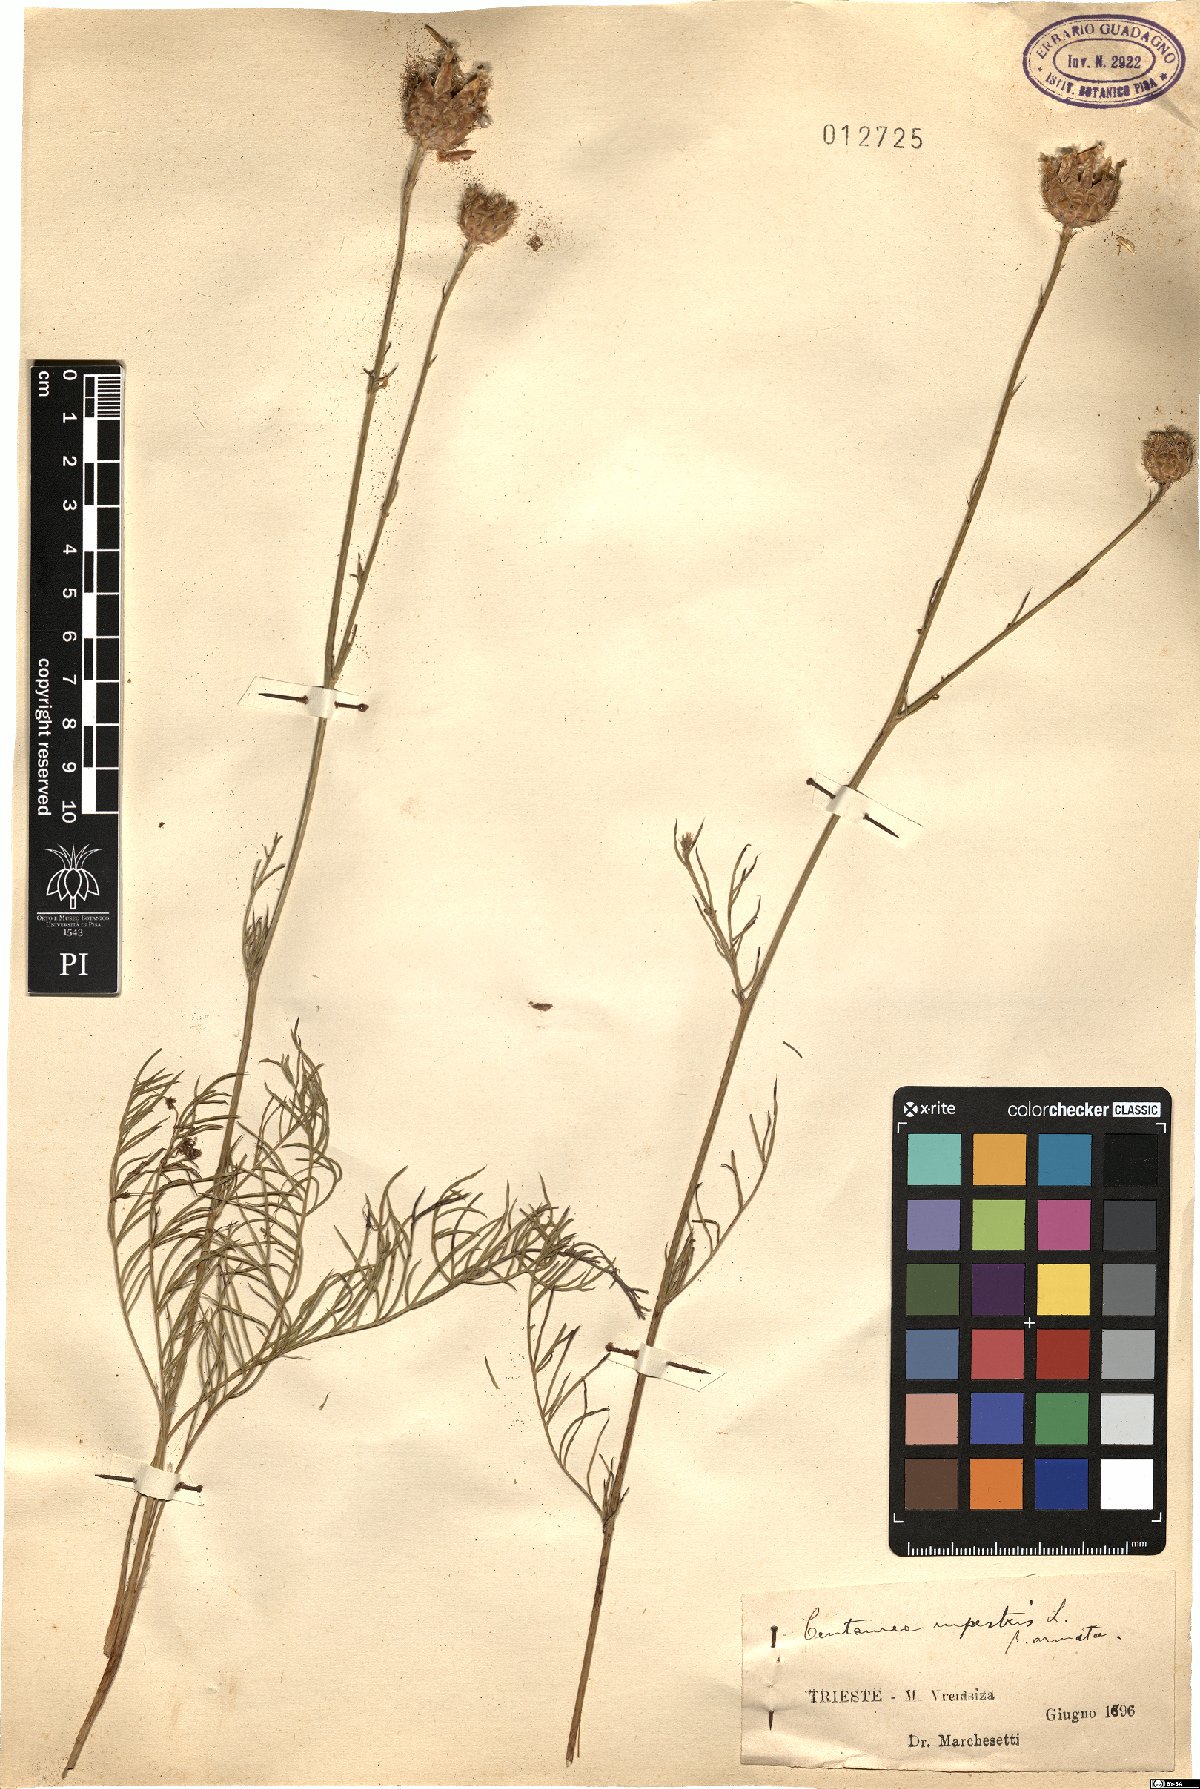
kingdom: Plantae
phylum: Tracheophyta
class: Magnoliopsida
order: Asterales
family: Asteraceae
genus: Centaurea
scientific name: Centaurea rupestris
